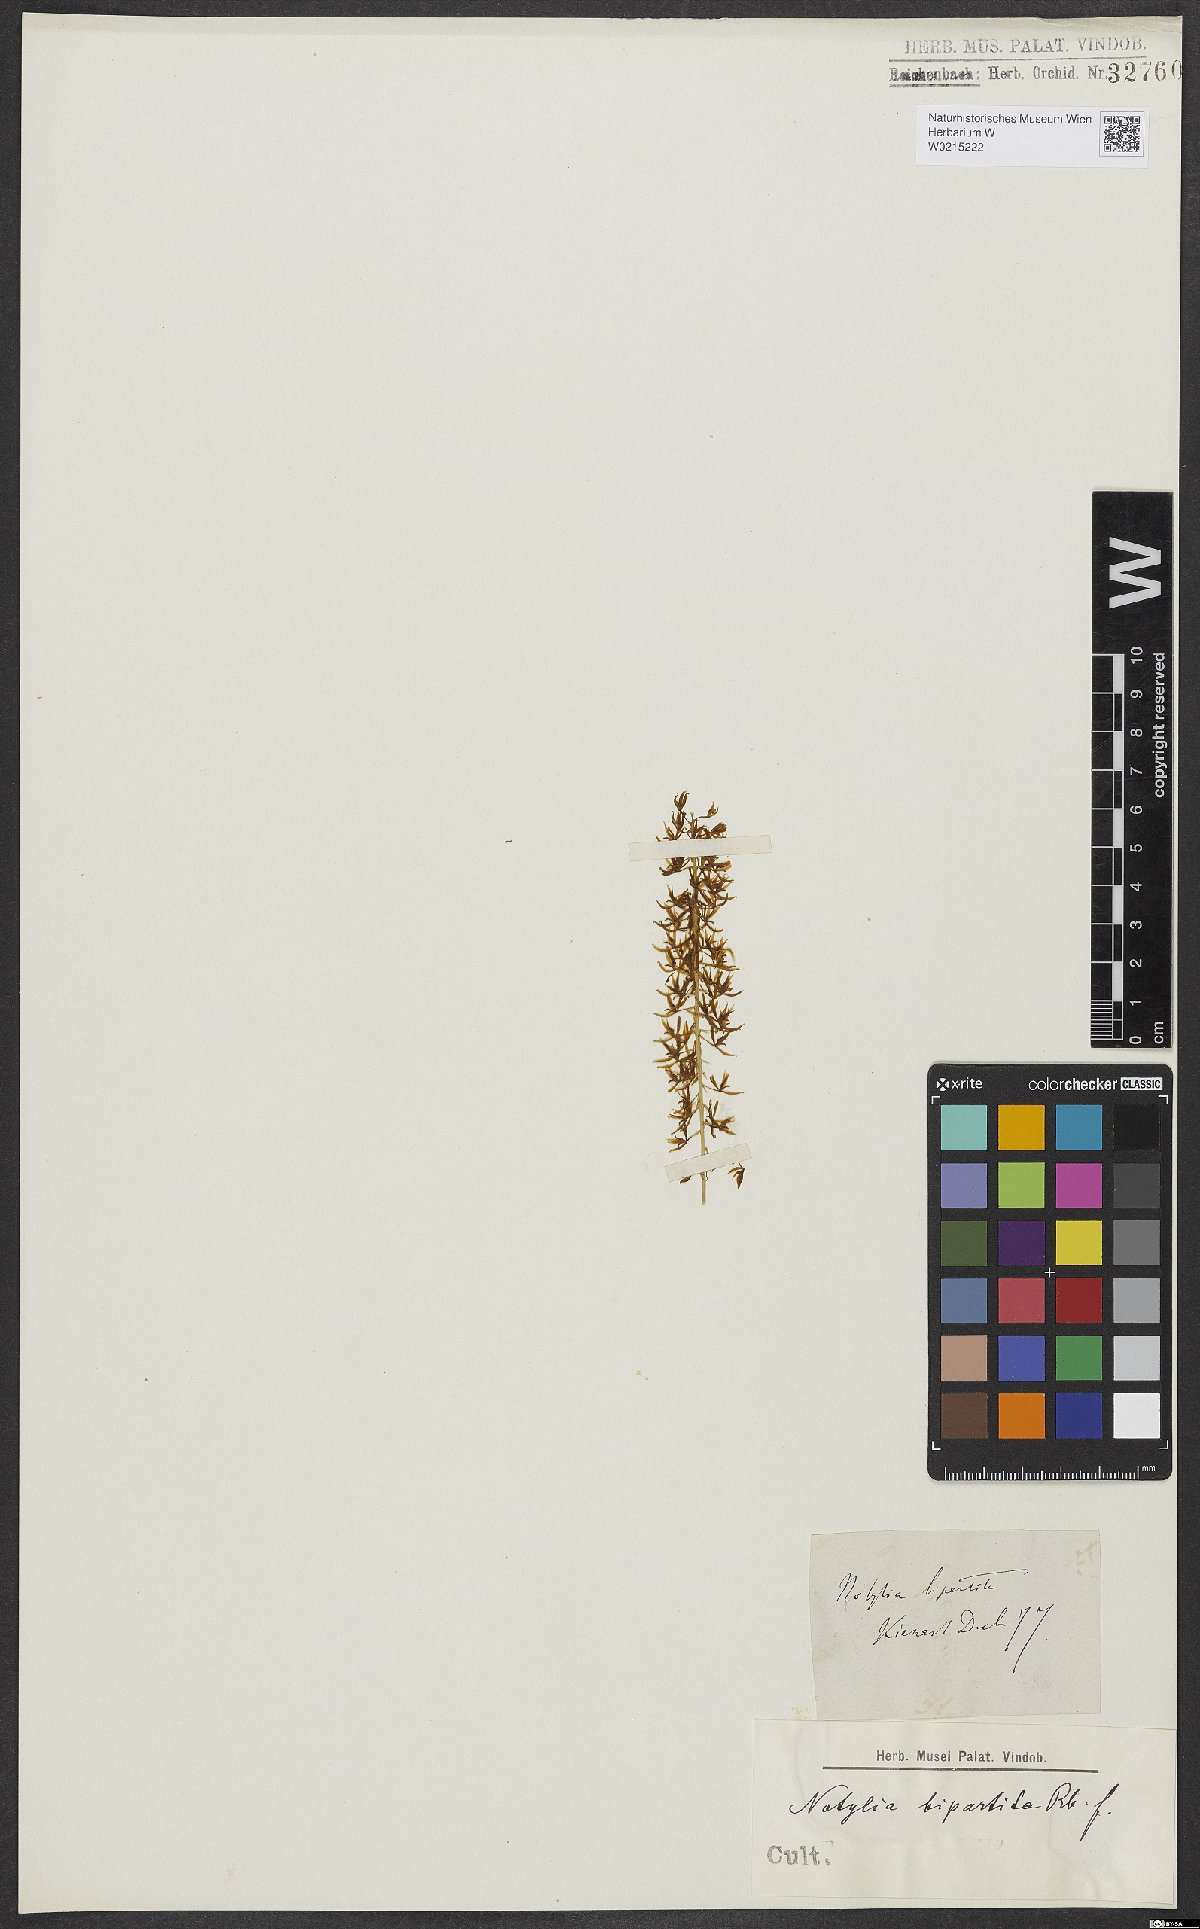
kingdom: Plantae
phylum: Tracheophyta
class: Liliopsida
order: Asparagales
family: Orchidaceae
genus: Notylia
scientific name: Notylia bipartita
